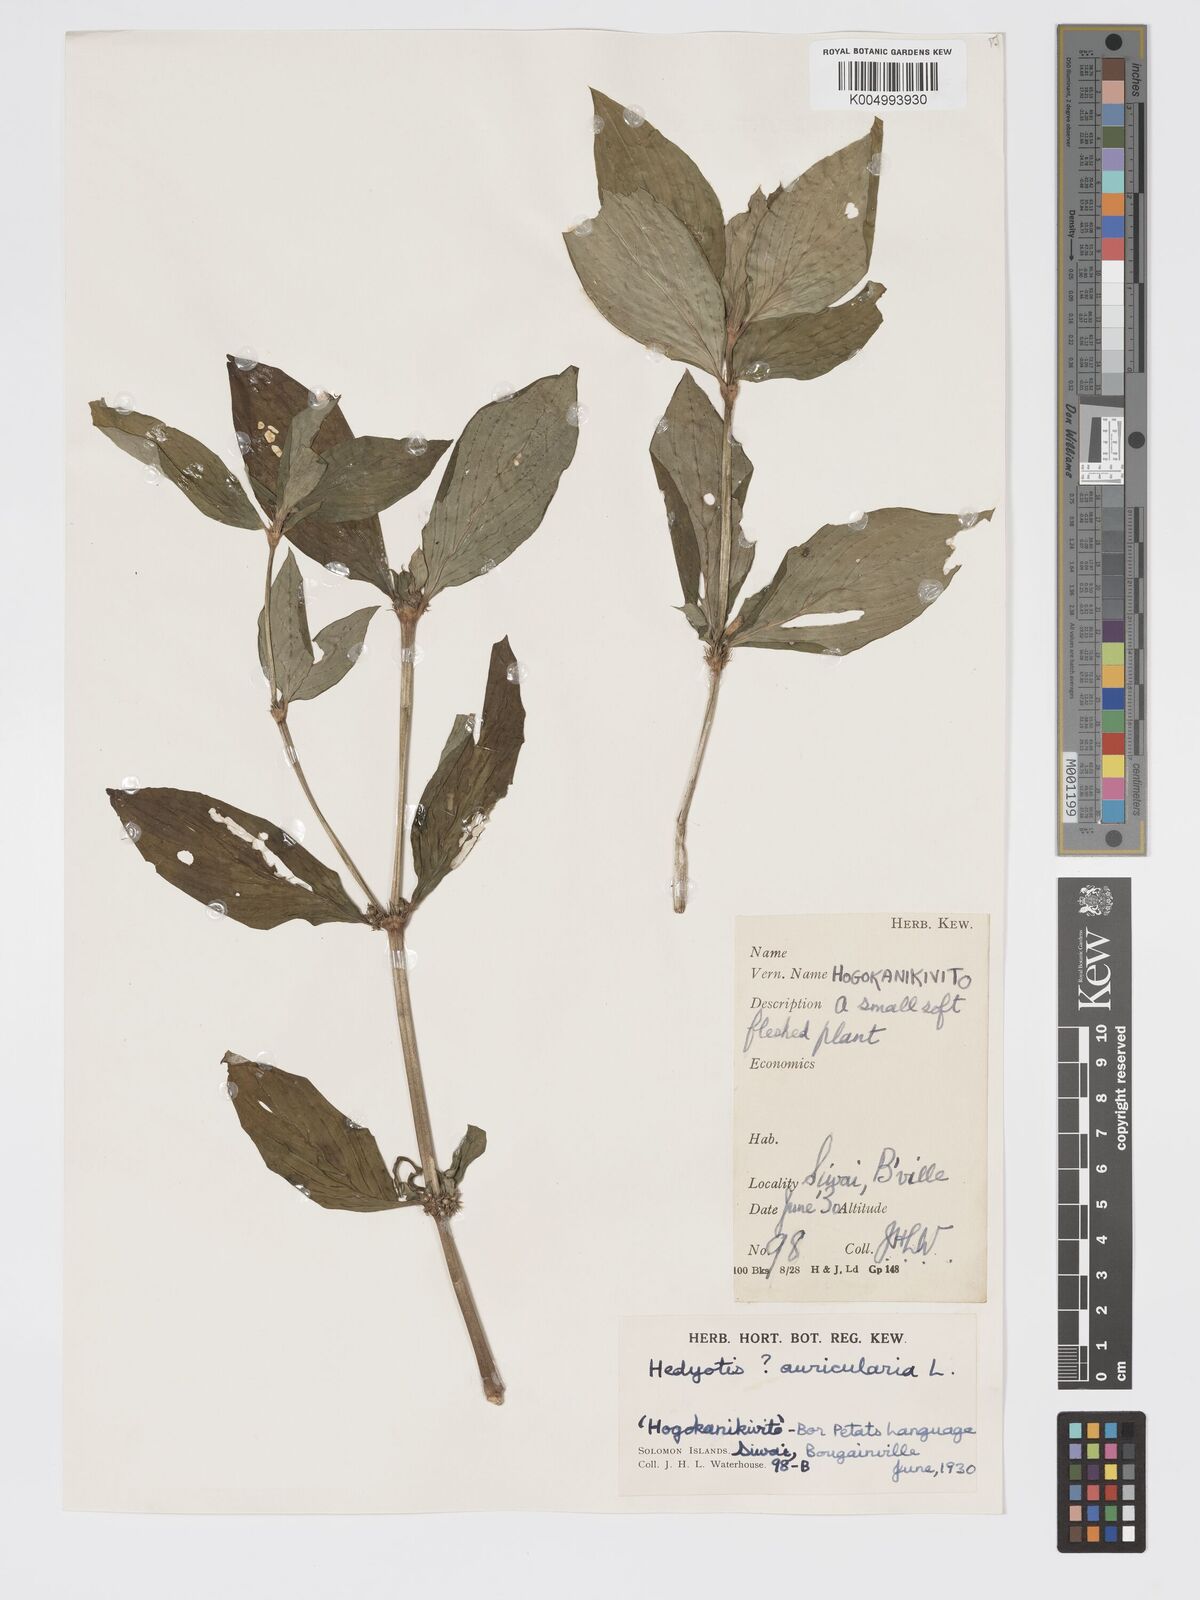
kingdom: Plantae
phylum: Tracheophyta
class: Magnoliopsida
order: Gentianales
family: Rubiaceae
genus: Exallage
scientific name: Exallage lapeyrousei
